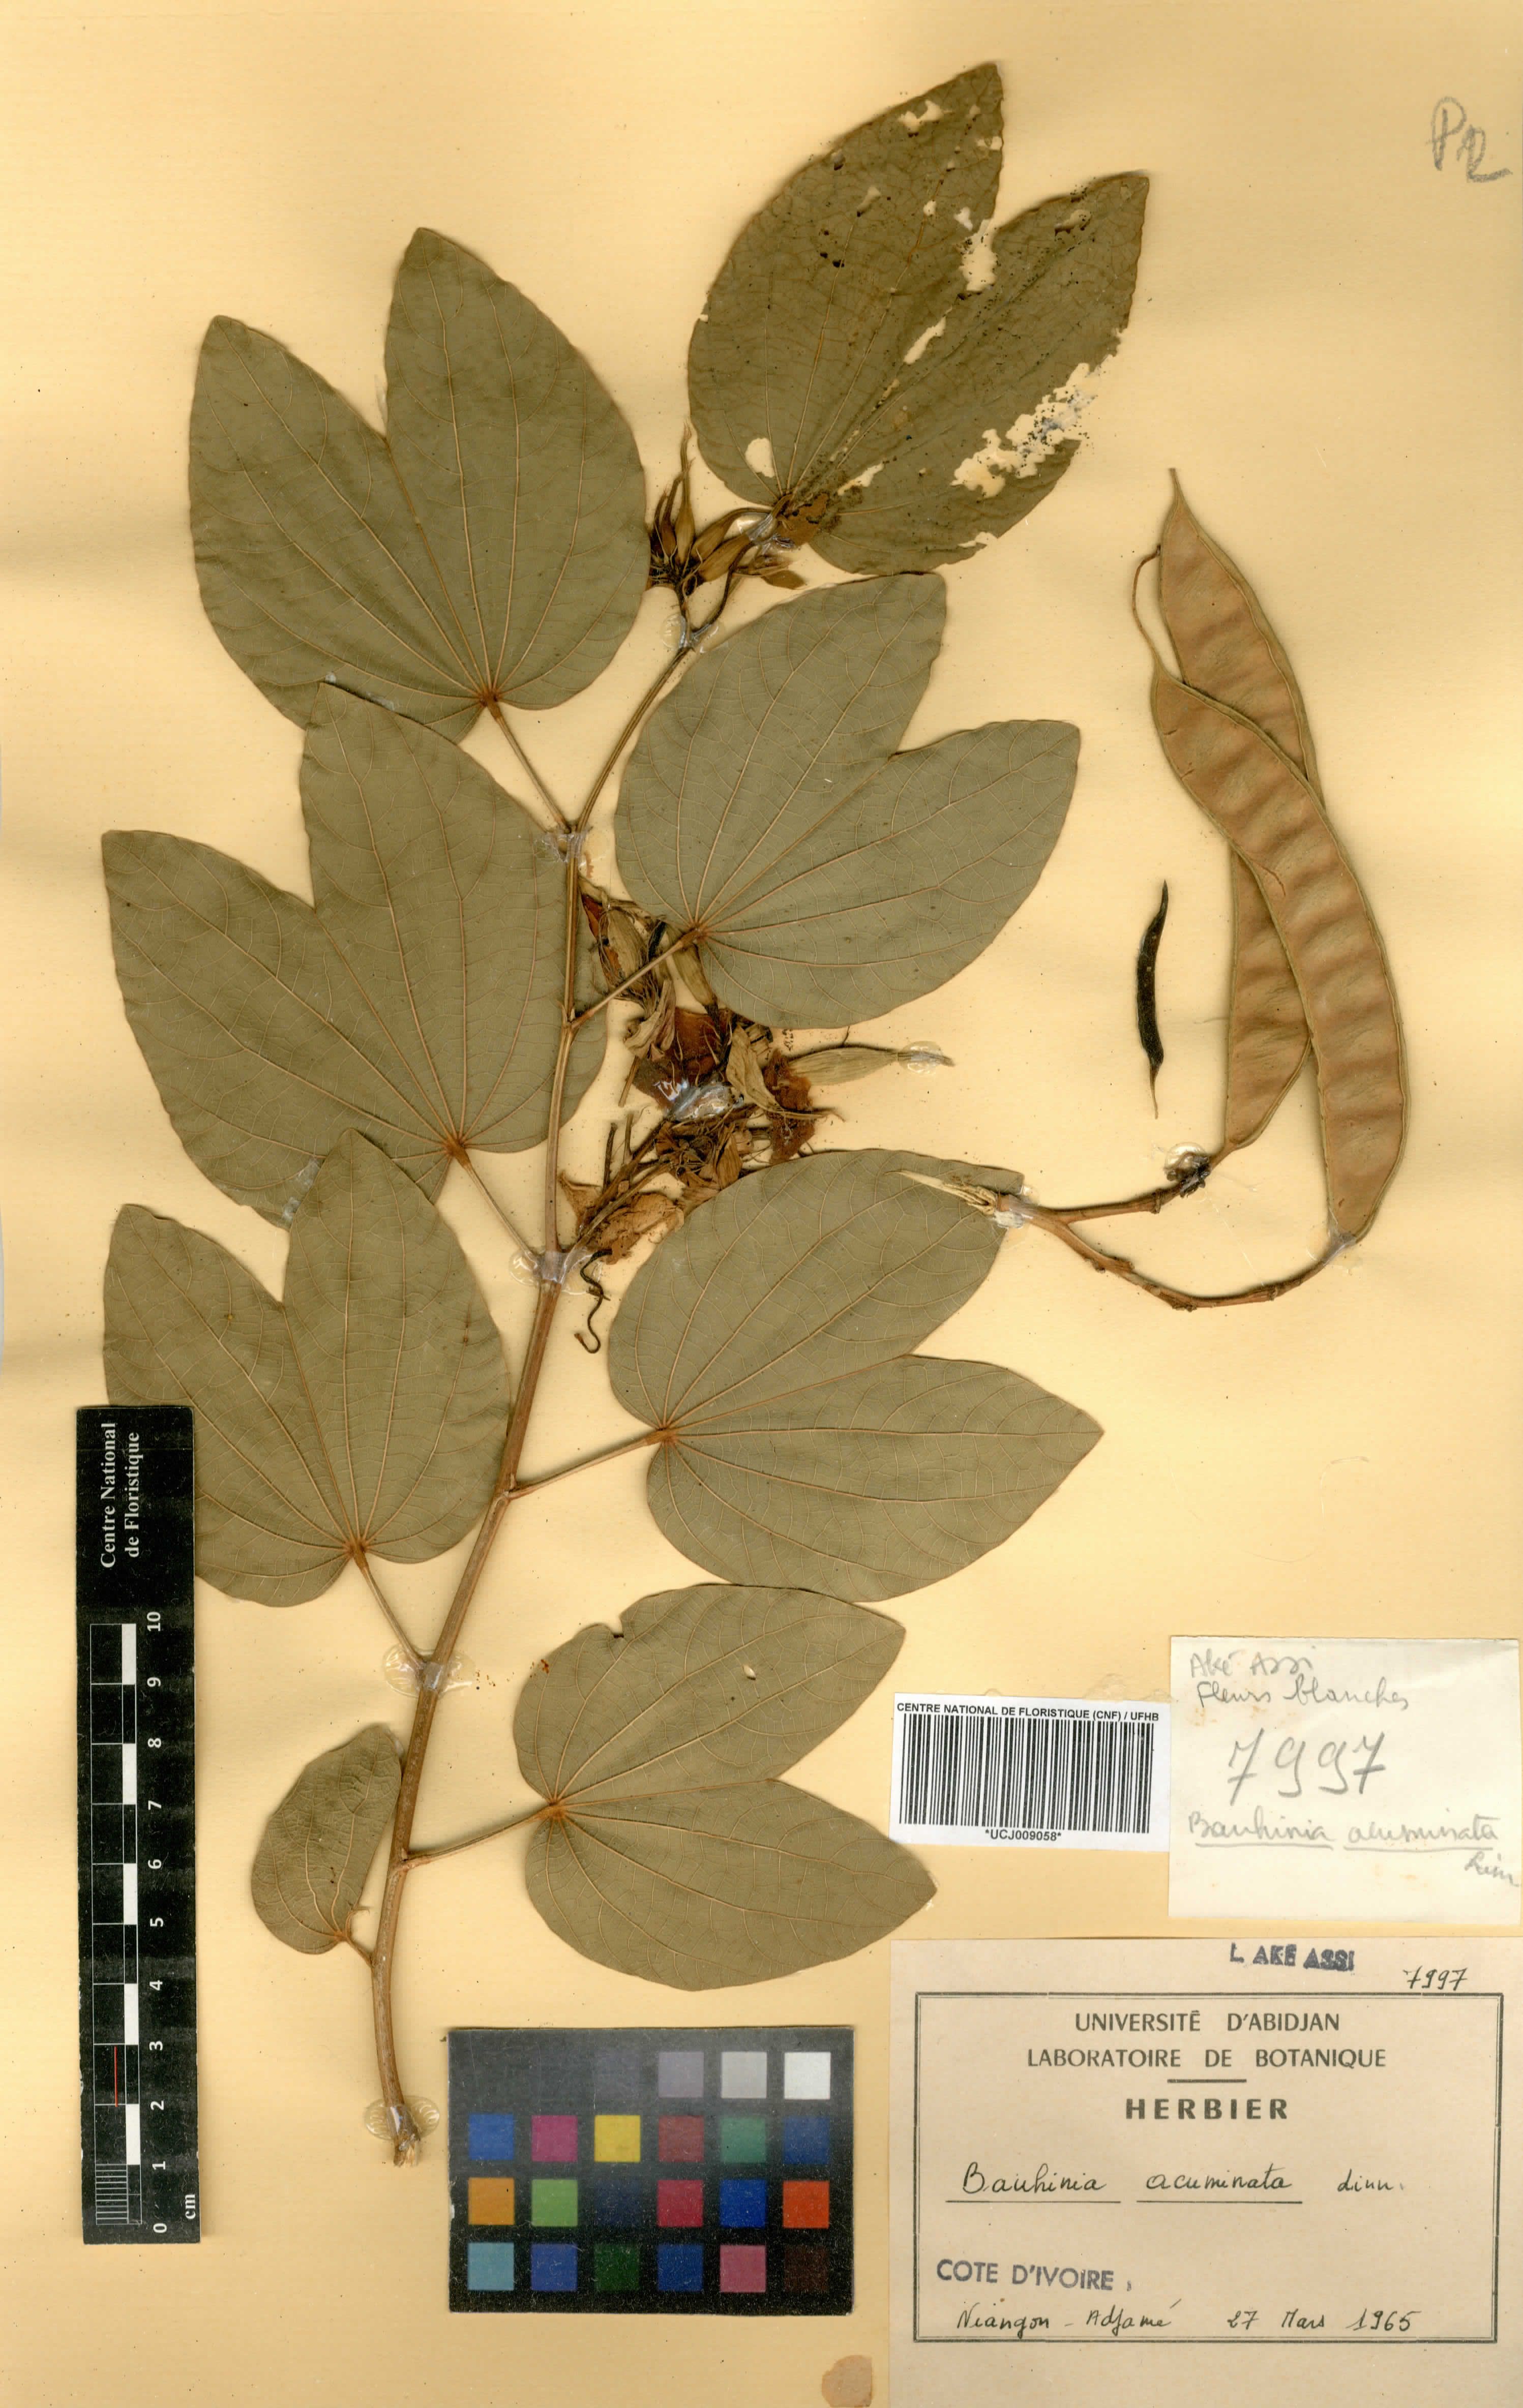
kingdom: Plantae
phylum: Tracheophyta
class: Magnoliopsida
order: Fabales
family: Fabaceae
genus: Bauhinia
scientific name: Bauhinia acuminata
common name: Dwarf white bauhinia
